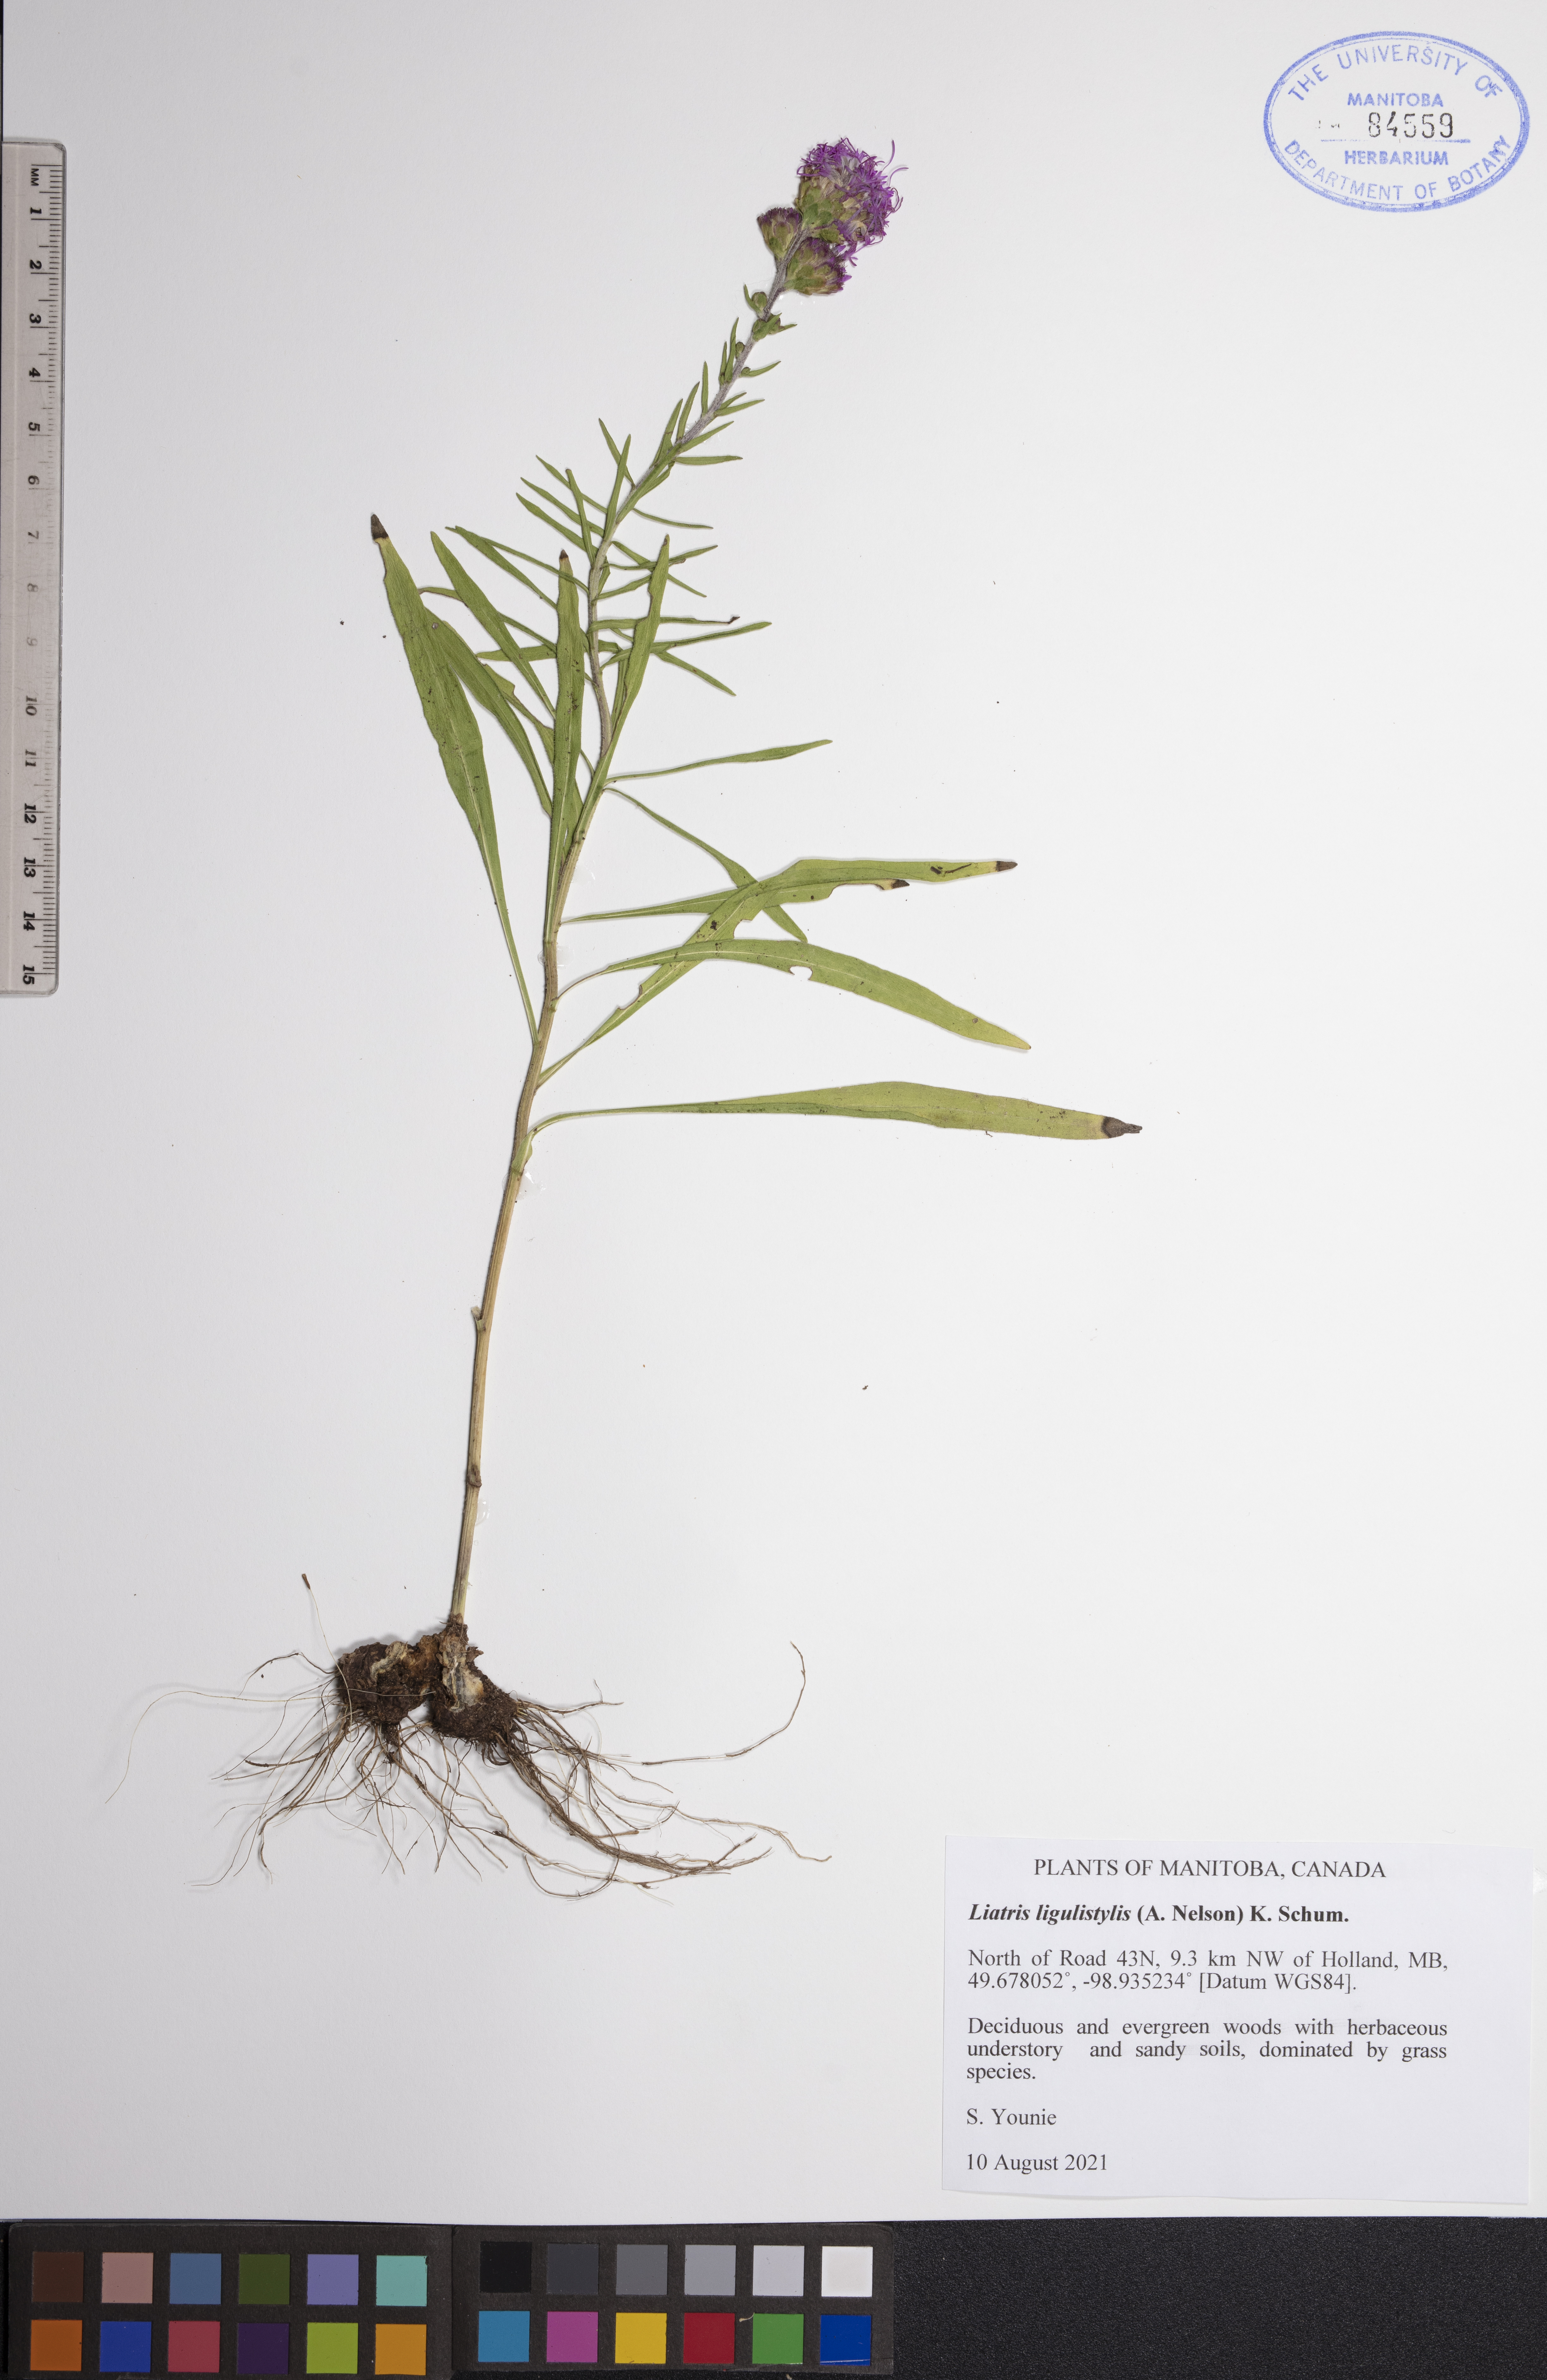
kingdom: Plantae
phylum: Tracheophyta
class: Magnoliopsida
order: Asterales
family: Asteraceae
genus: Liatris
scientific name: Liatris ligulistylis
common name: Northern plains gayfeather
